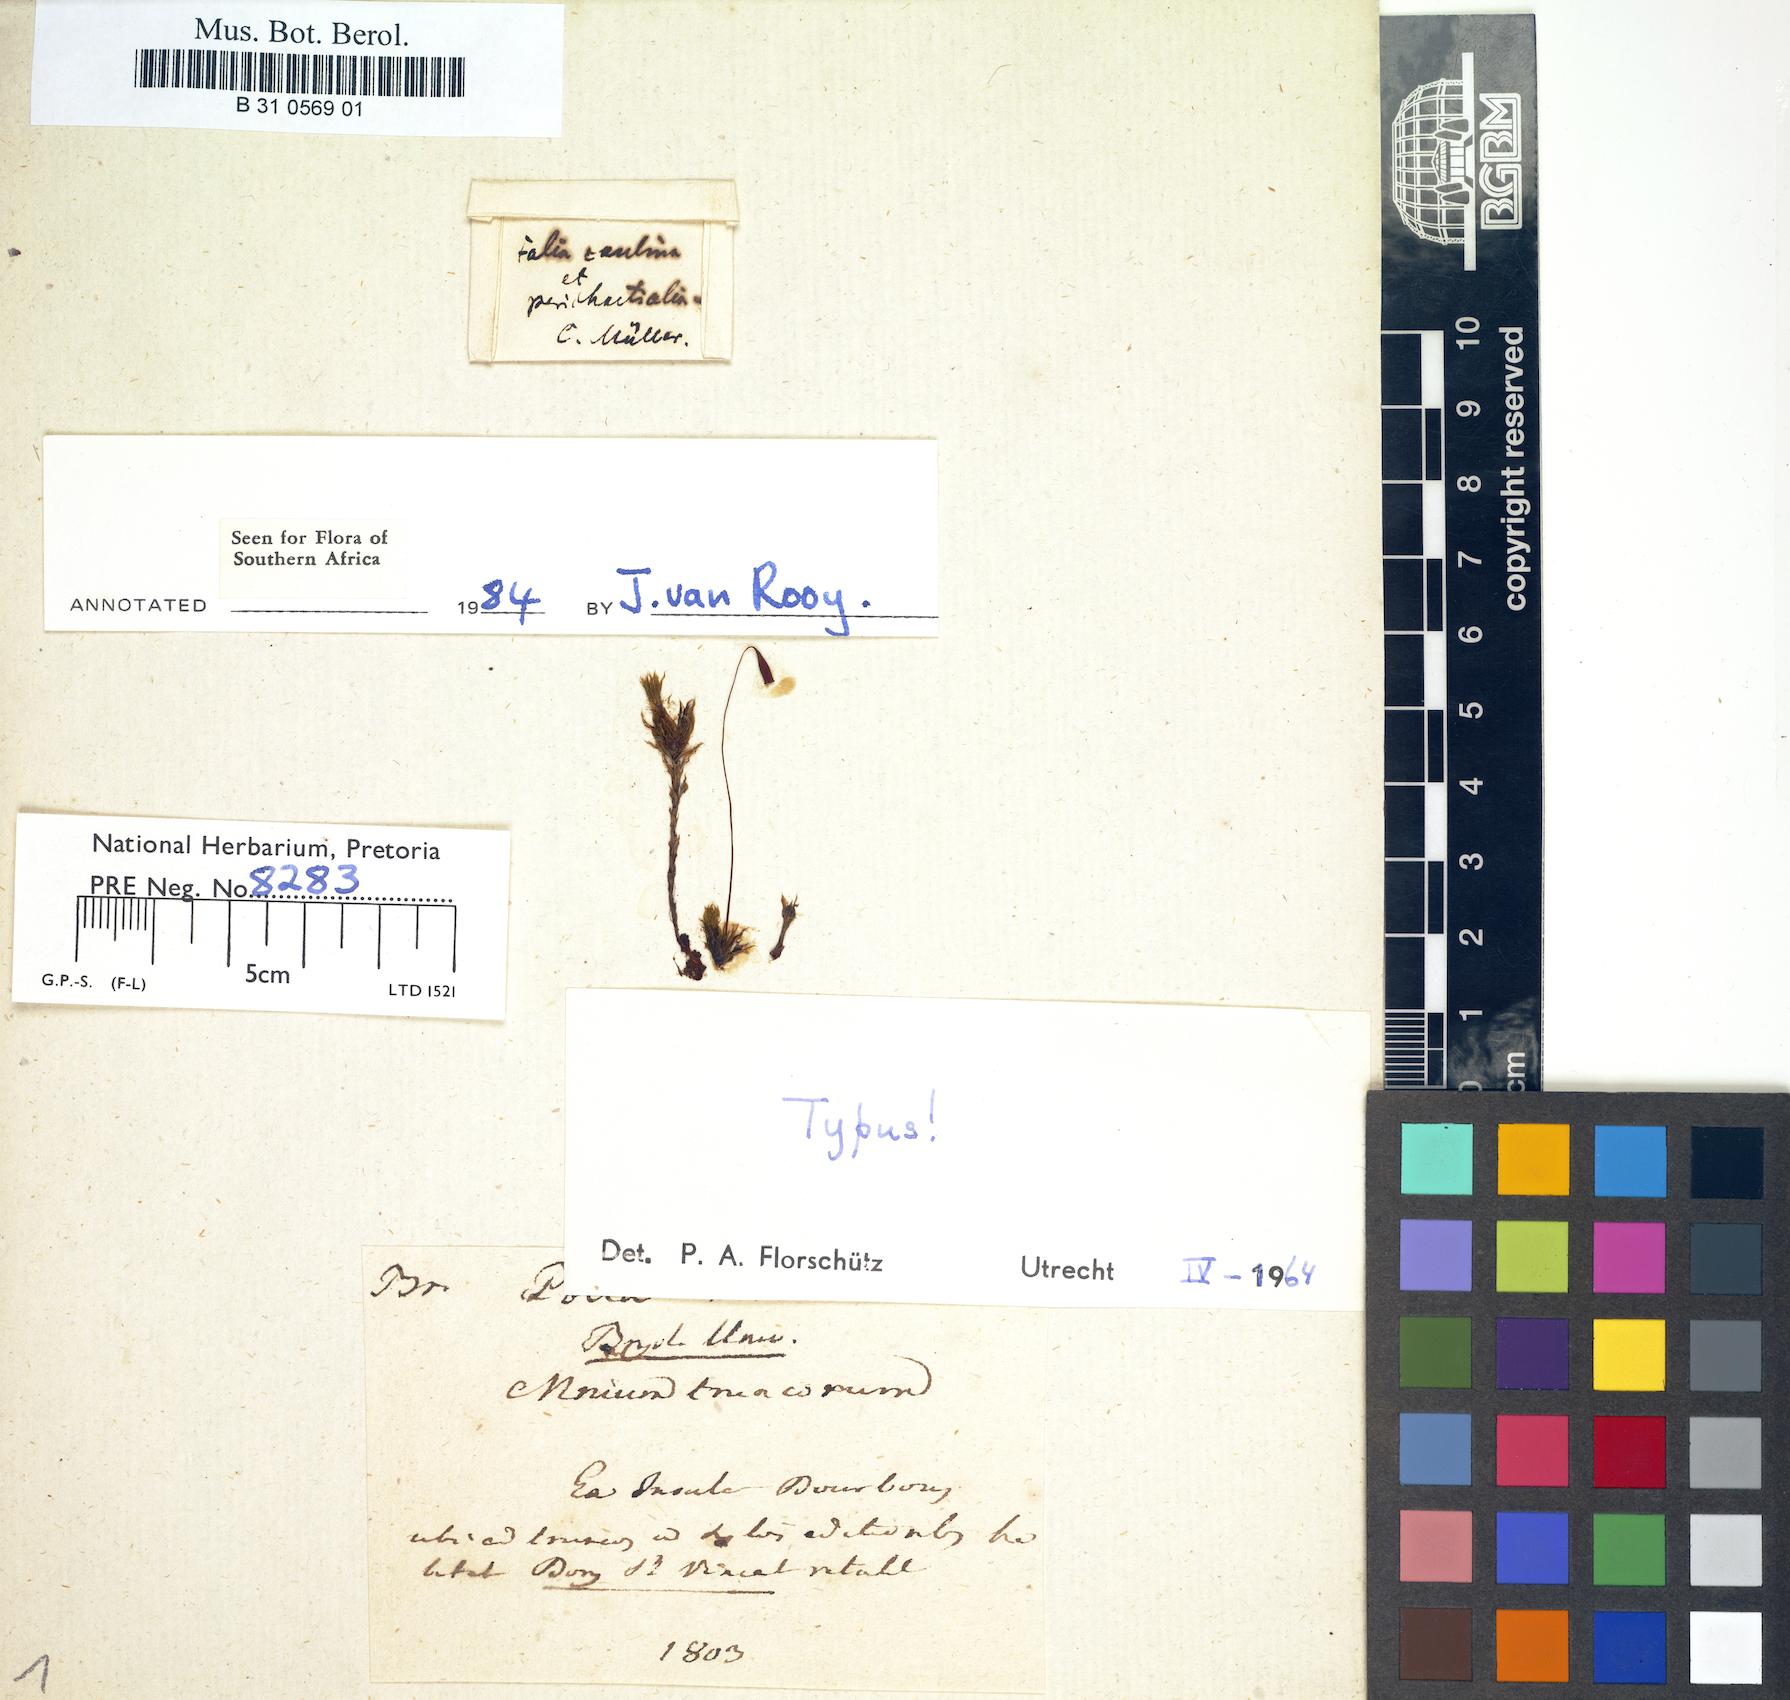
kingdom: Plantae
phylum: Bryophyta
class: Bryopsida
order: Bryales
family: Bryaceae
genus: Rosulabryum
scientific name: Rosulabryum truncorum
